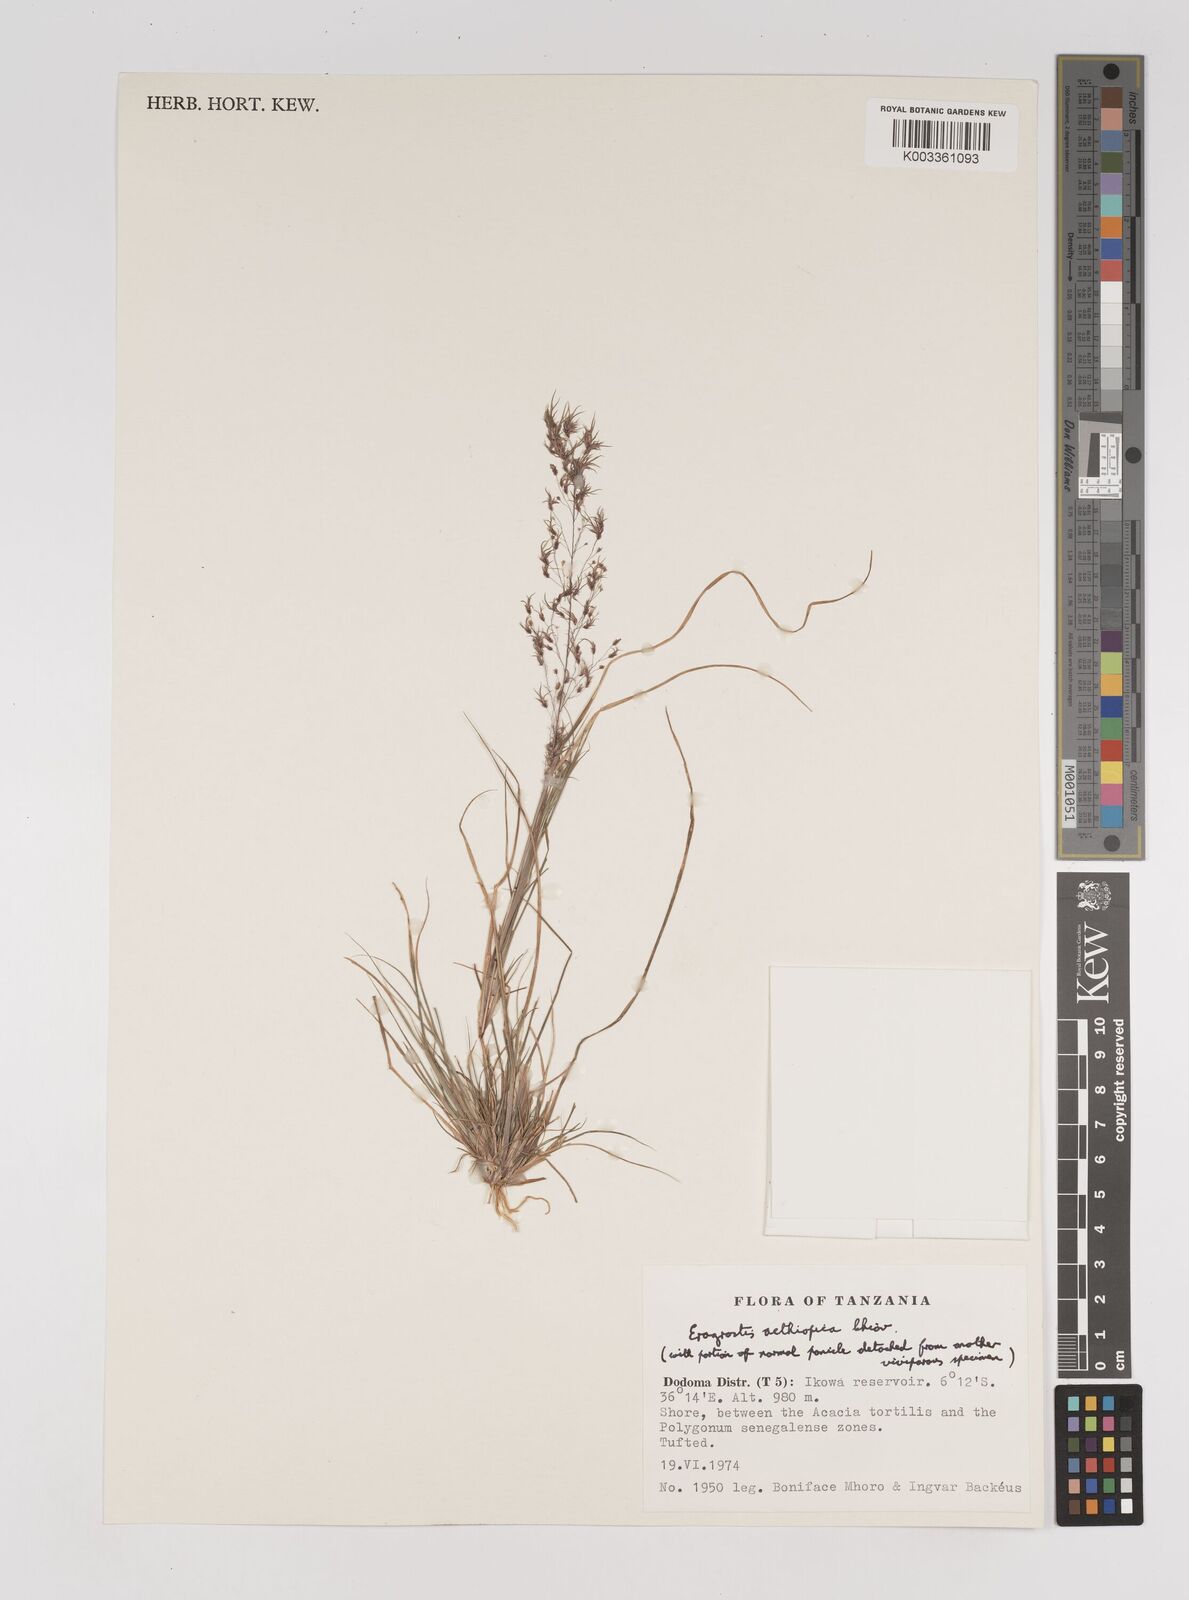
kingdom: Plantae
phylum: Tracheophyta
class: Liliopsida
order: Poales
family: Poaceae
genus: Eragrostis
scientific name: Eragrostis aethiopica
